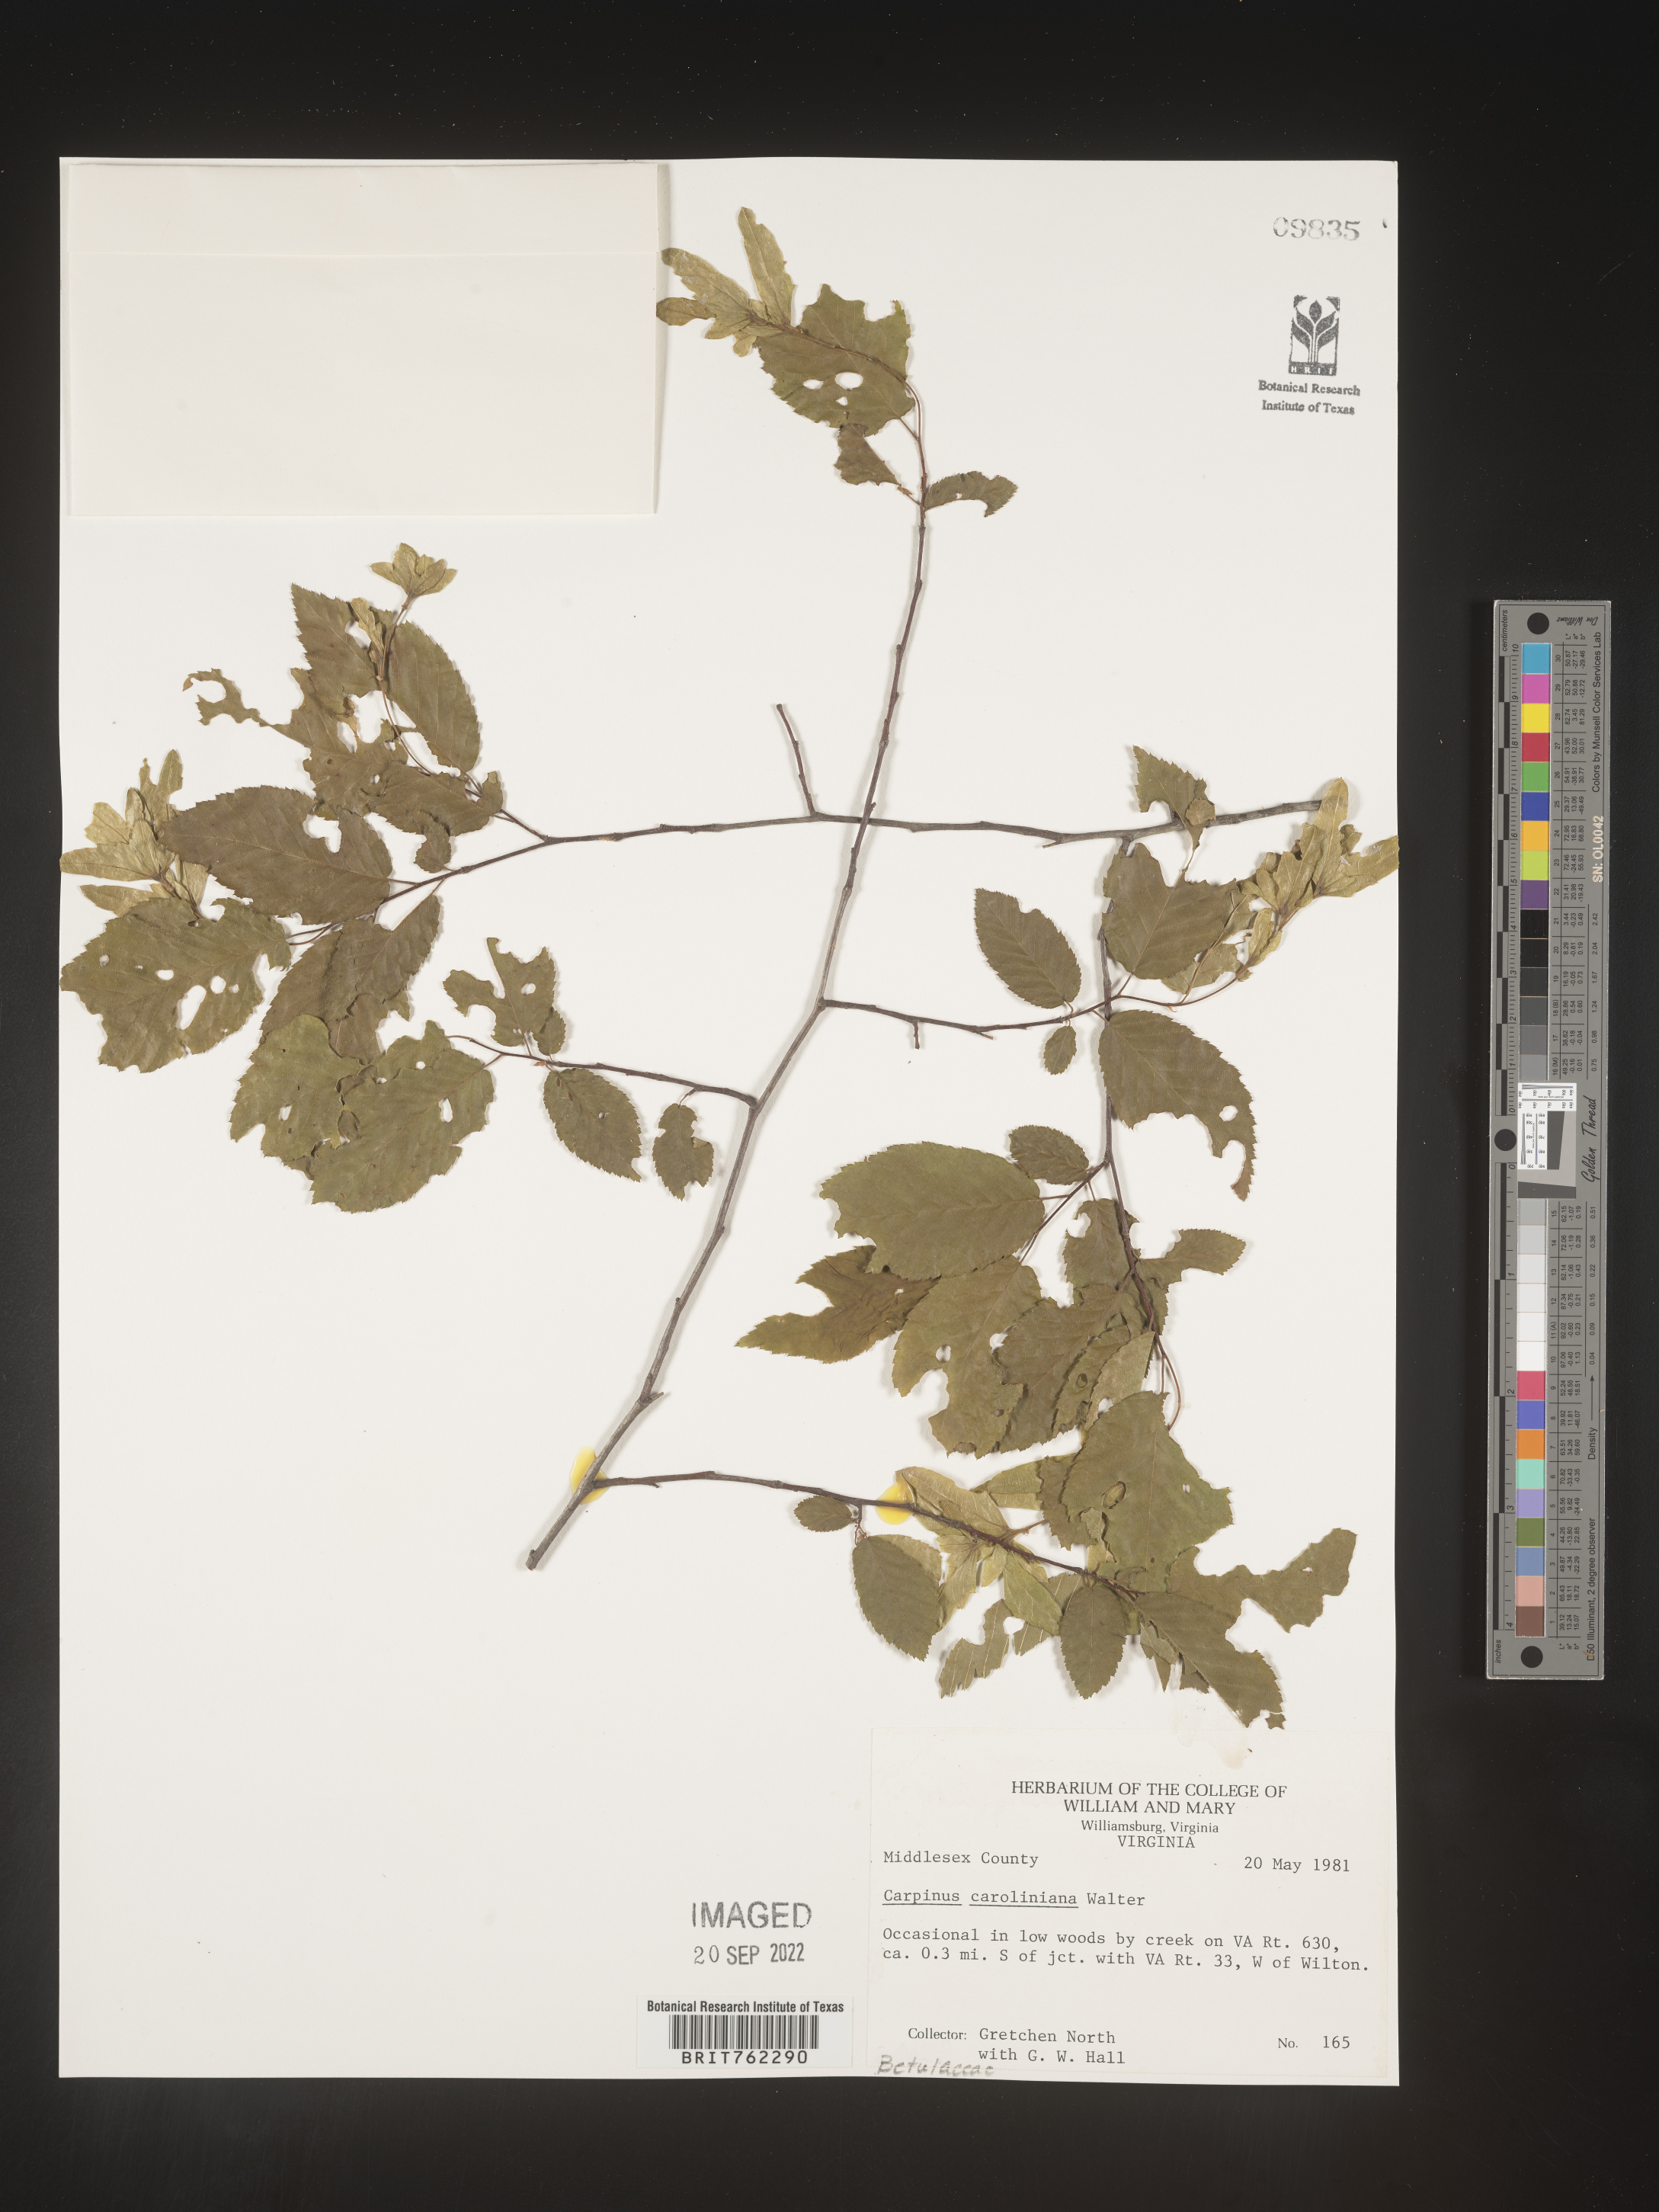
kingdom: Plantae
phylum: Tracheophyta
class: Magnoliopsida
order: Fagales
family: Betulaceae
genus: Carpinus
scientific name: Carpinus caroliniana
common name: American hornbeam
